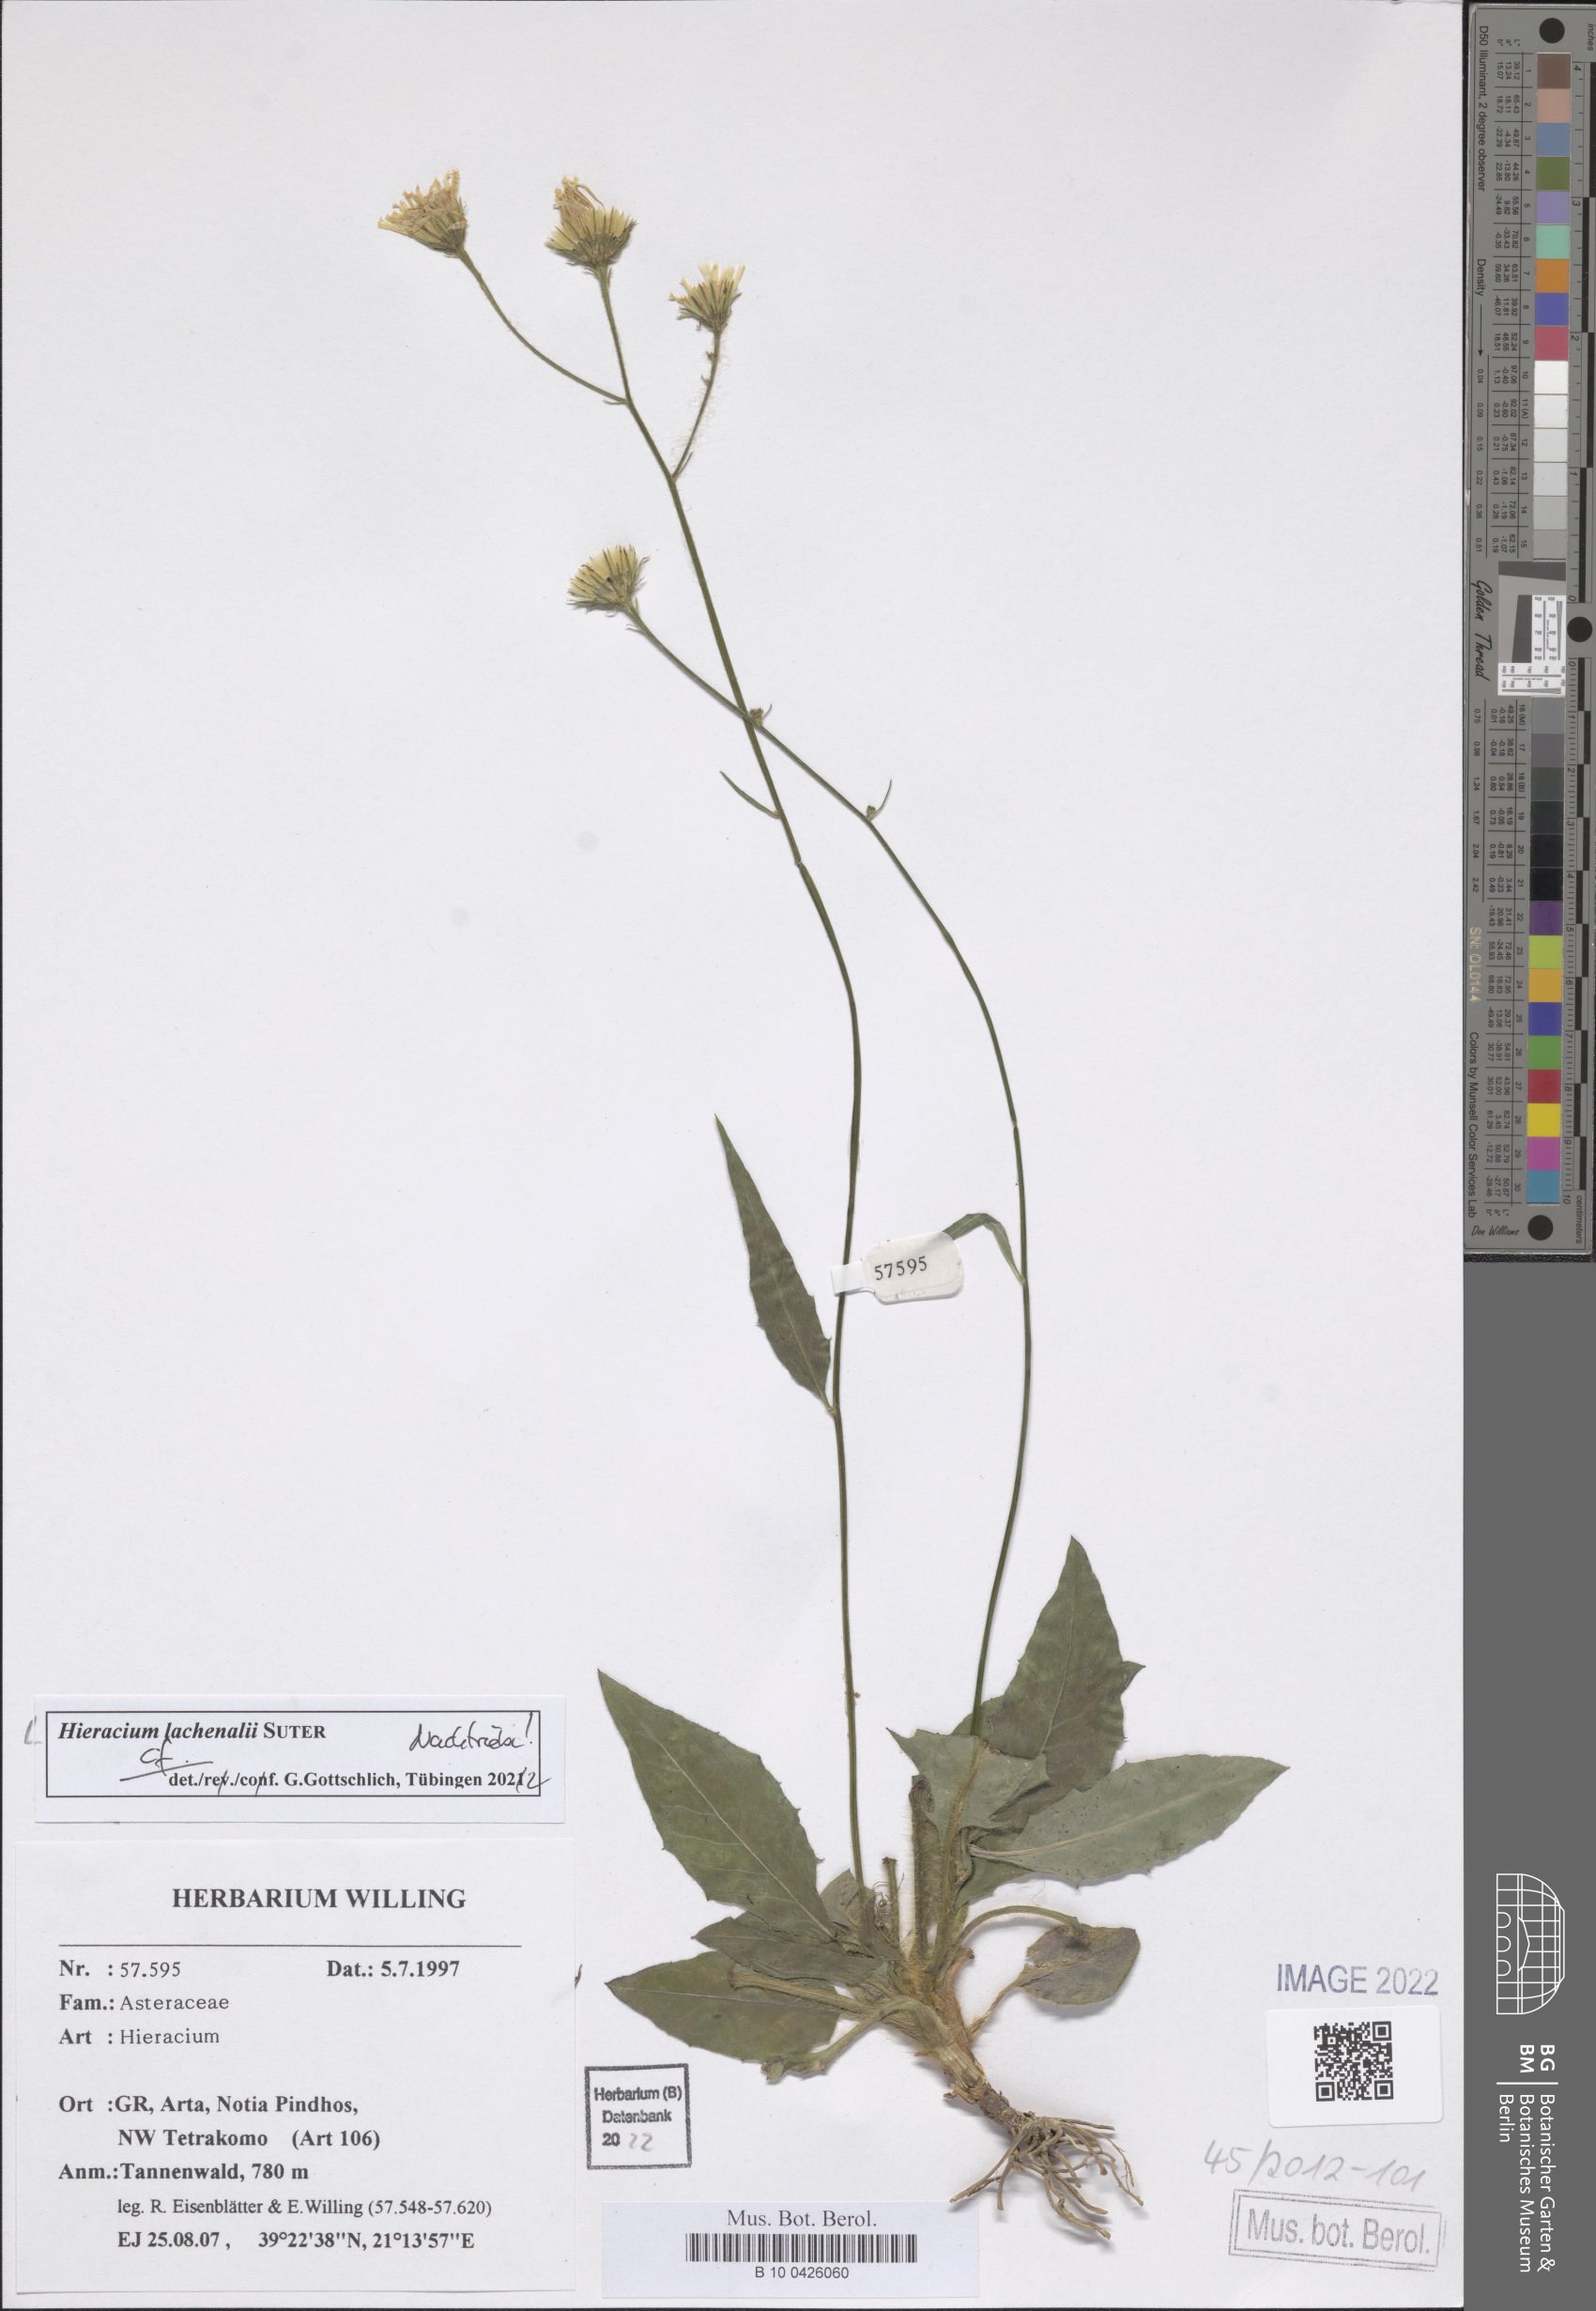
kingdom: Plantae
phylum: Tracheophyta
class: Magnoliopsida
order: Asterales
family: Asteraceae
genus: Hieracium
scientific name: Hieracium lachenalii
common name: Common hawkweed
